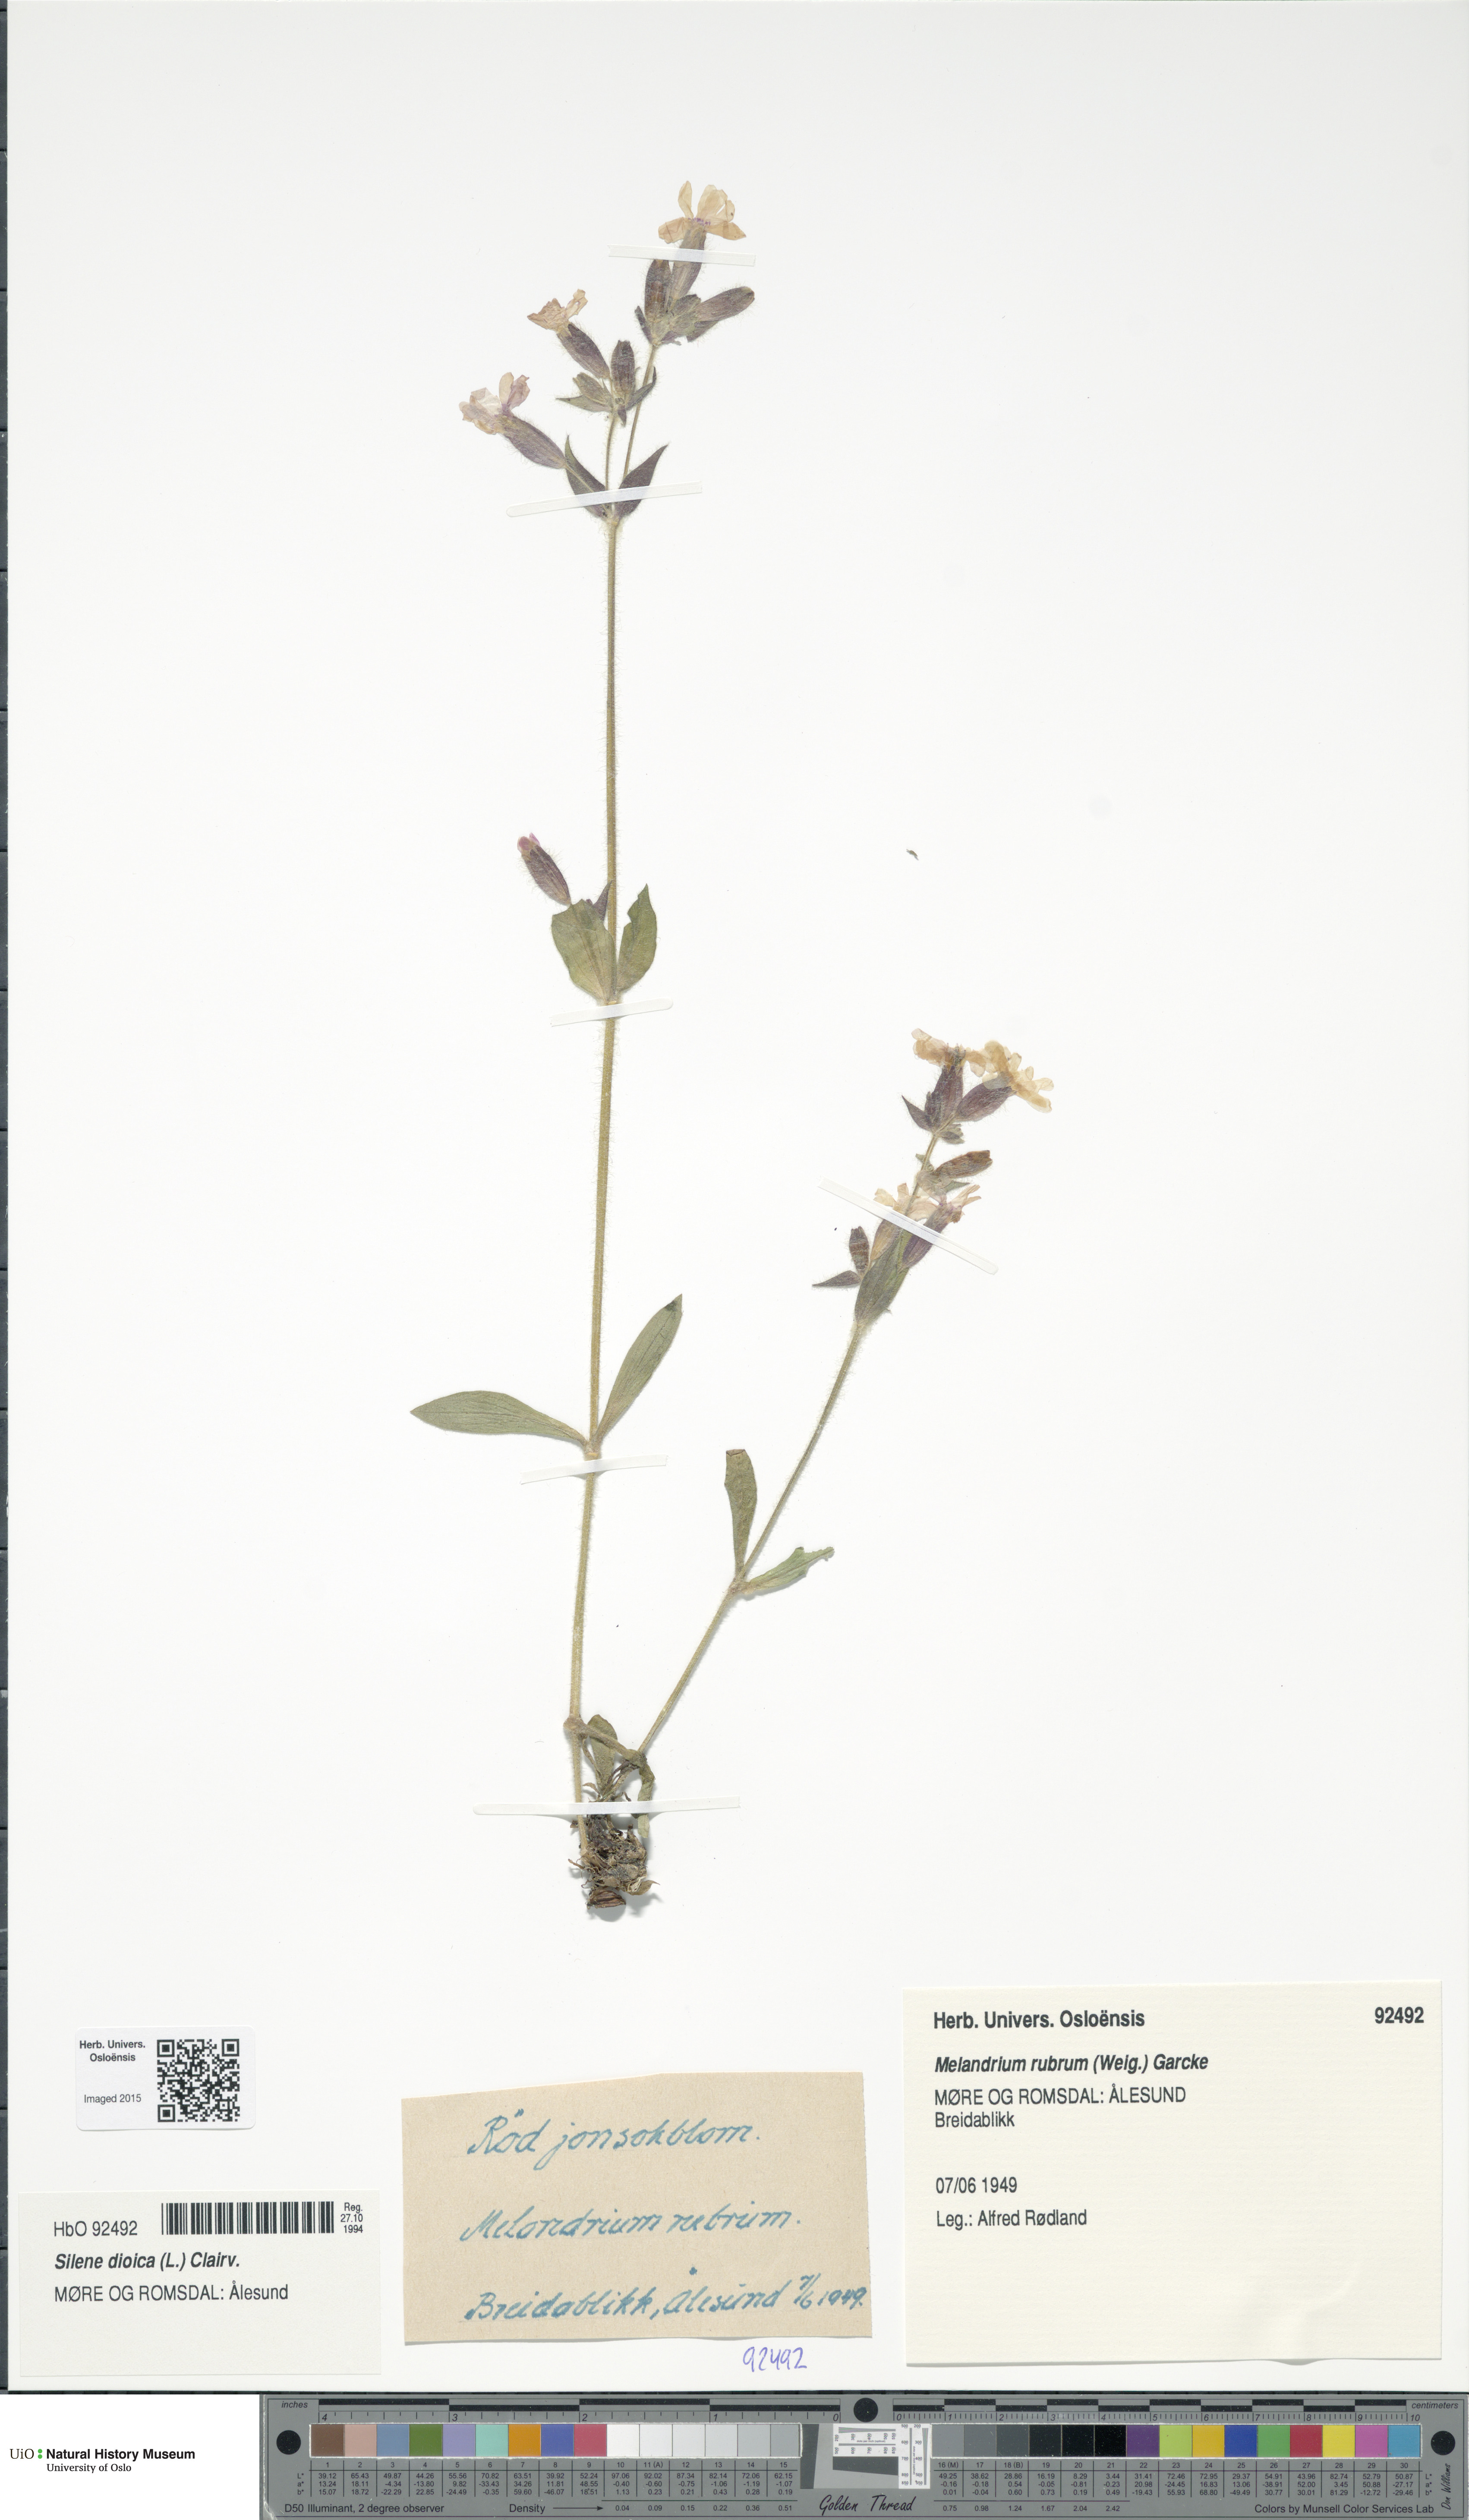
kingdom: Plantae
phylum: Tracheophyta
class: Magnoliopsida
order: Caryophyllales
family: Caryophyllaceae
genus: Silene
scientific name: Silene dioica
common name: Red campion
